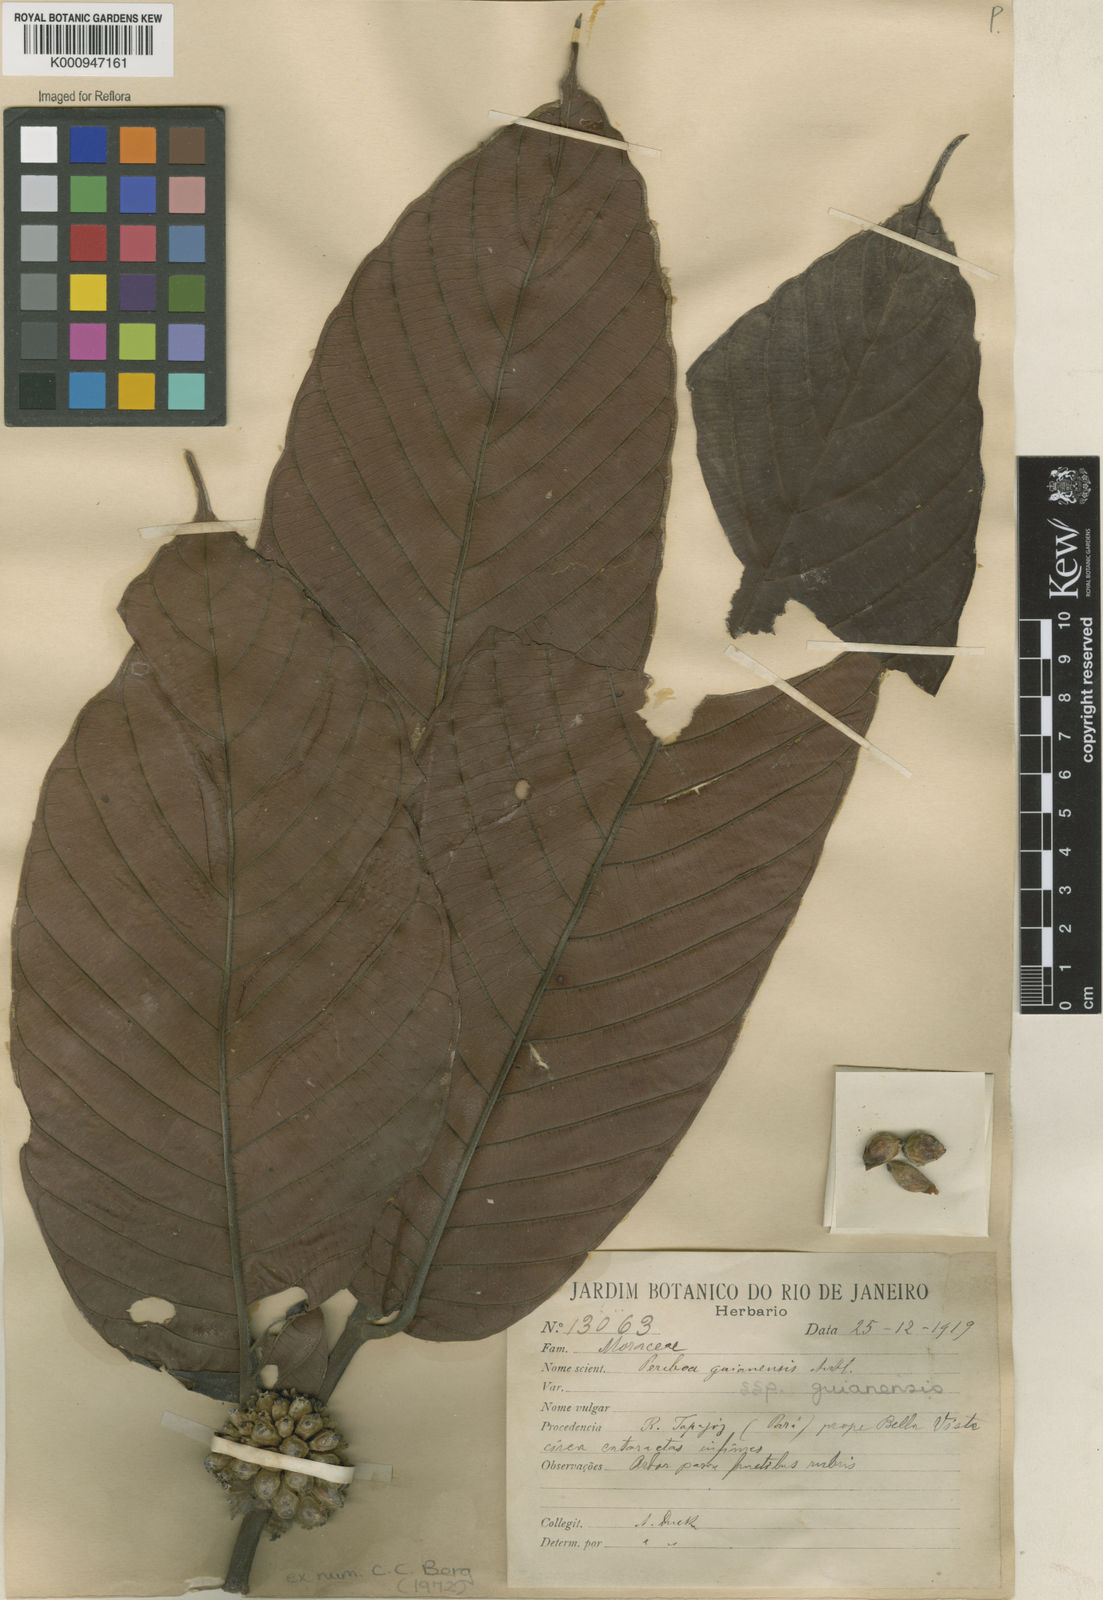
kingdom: Plantae
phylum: Tracheophyta
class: Magnoliopsida
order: Rosales
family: Moraceae
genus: Perebea
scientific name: Perebea guianensis
